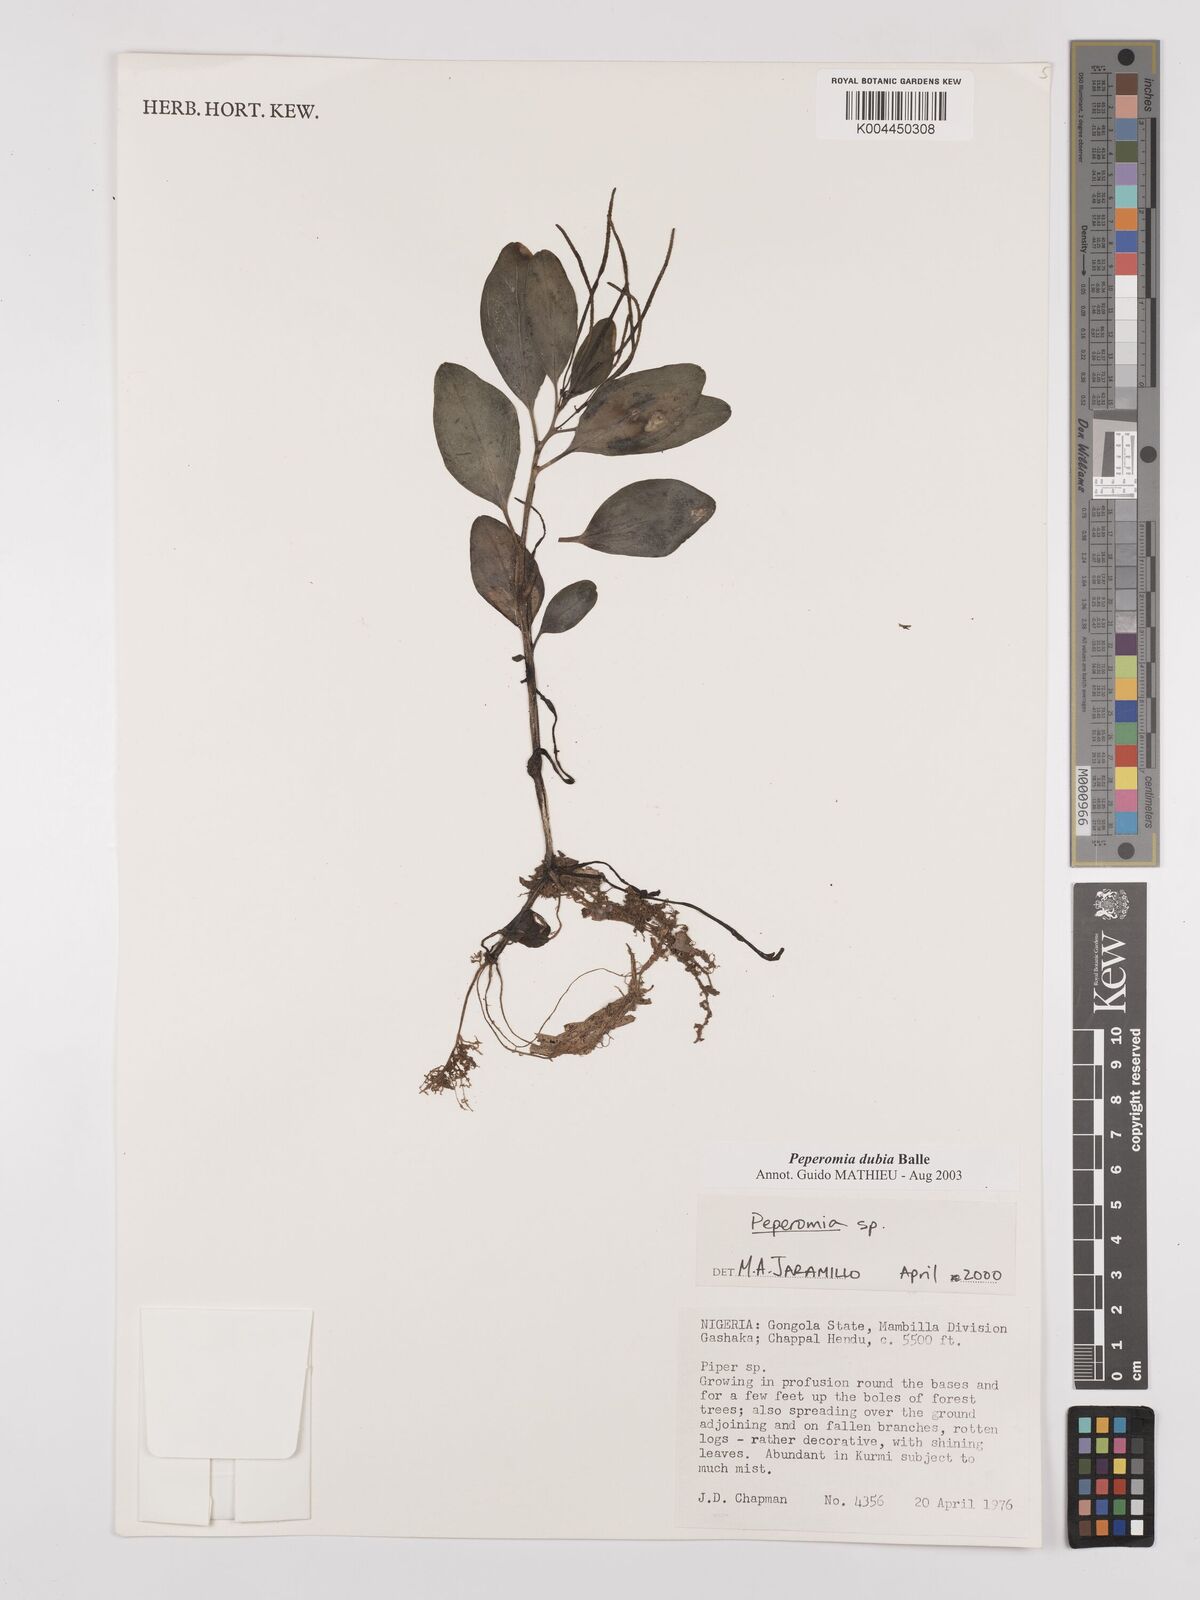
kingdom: Plantae
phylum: Tracheophyta
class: Magnoliopsida
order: Piperales
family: Piperaceae
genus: Peperomia
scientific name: Peperomia dubia
